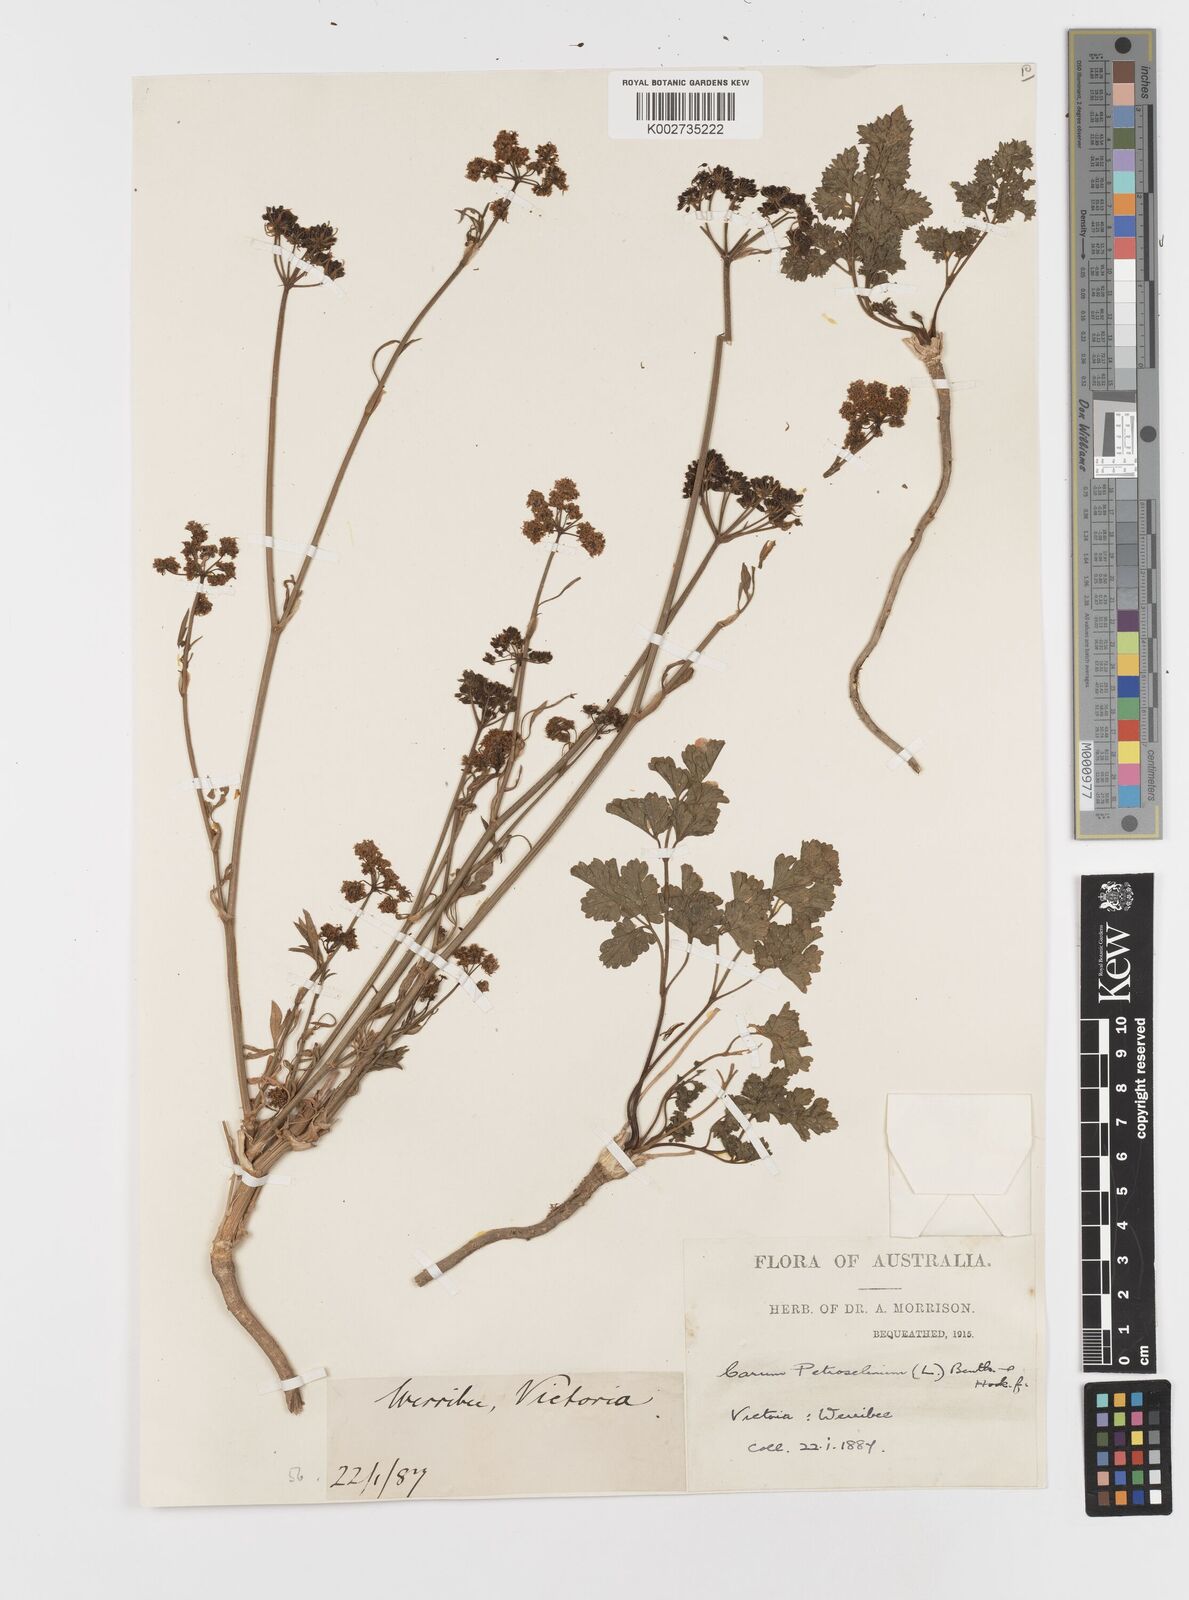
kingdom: Plantae
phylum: Tracheophyta
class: Magnoliopsida
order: Apiales
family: Apiaceae
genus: Petroselinum
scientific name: Petroselinum
